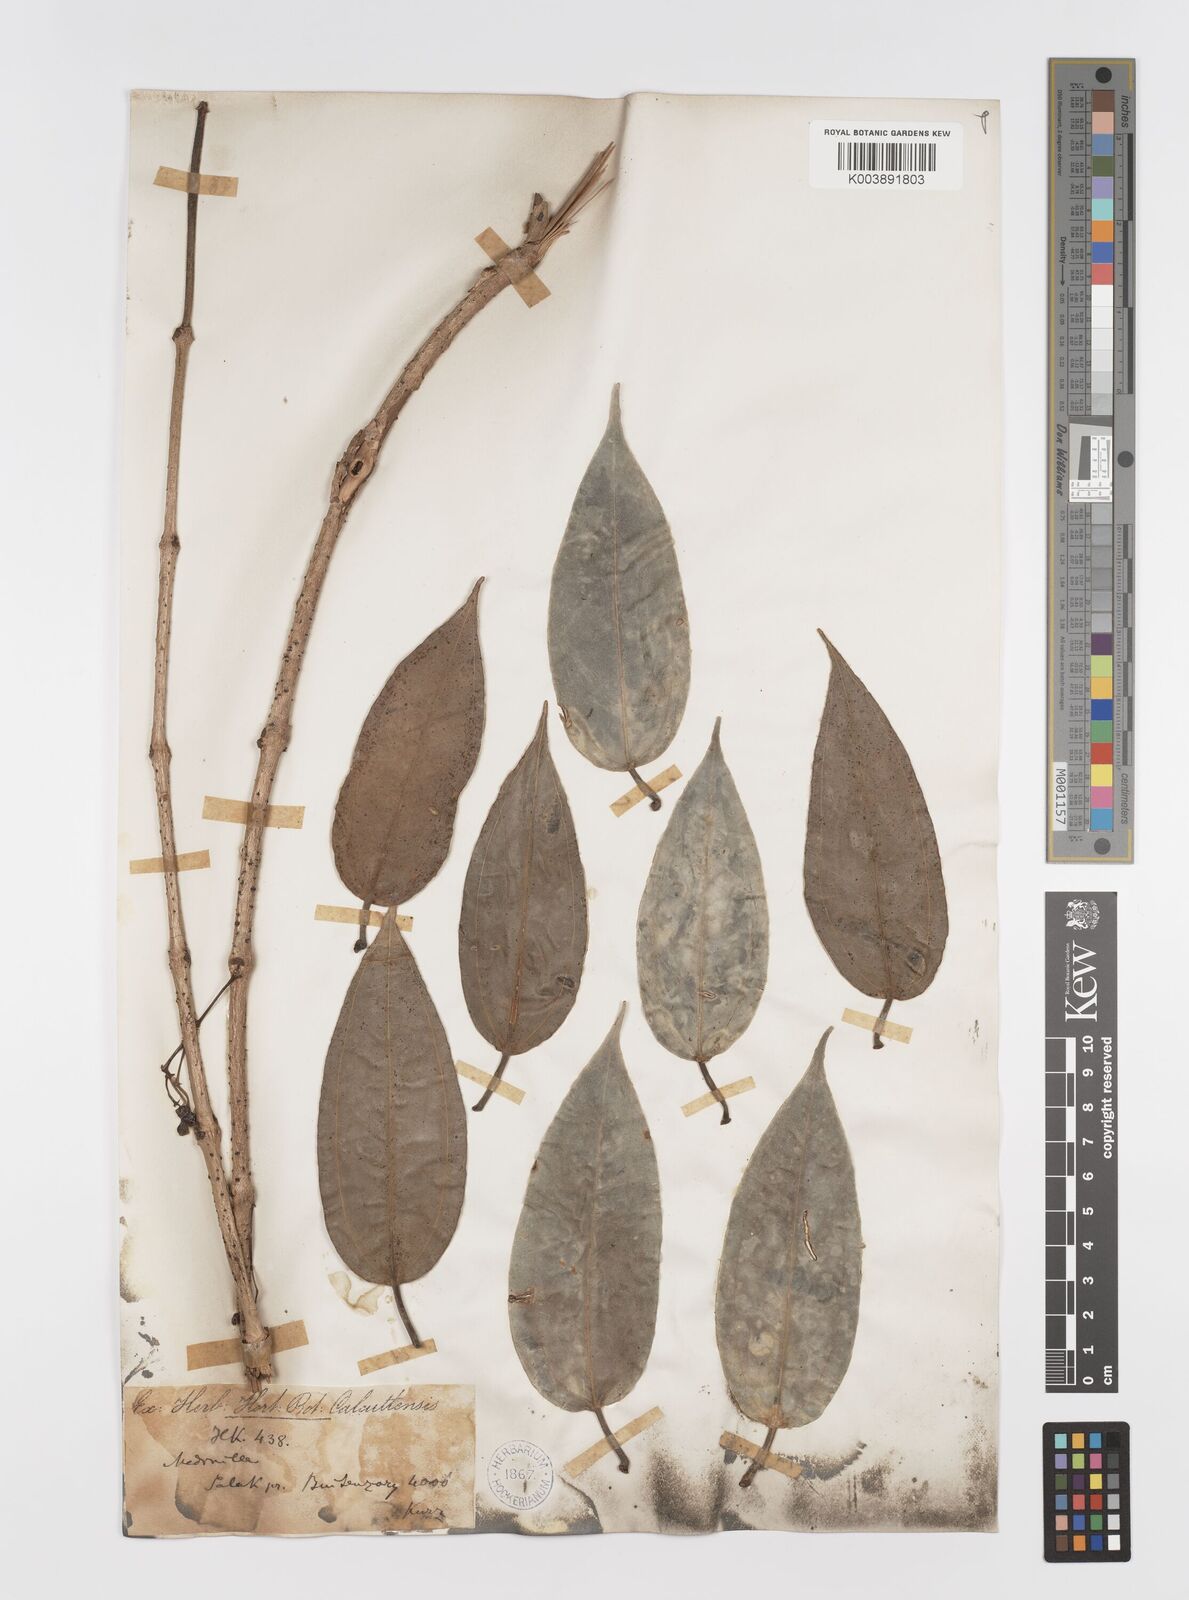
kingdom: Plantae
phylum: Tracheophyta
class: Magnoliopsida
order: Myrtales
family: Melastomataceae
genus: Medinilla
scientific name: Medinilla crassifolia
